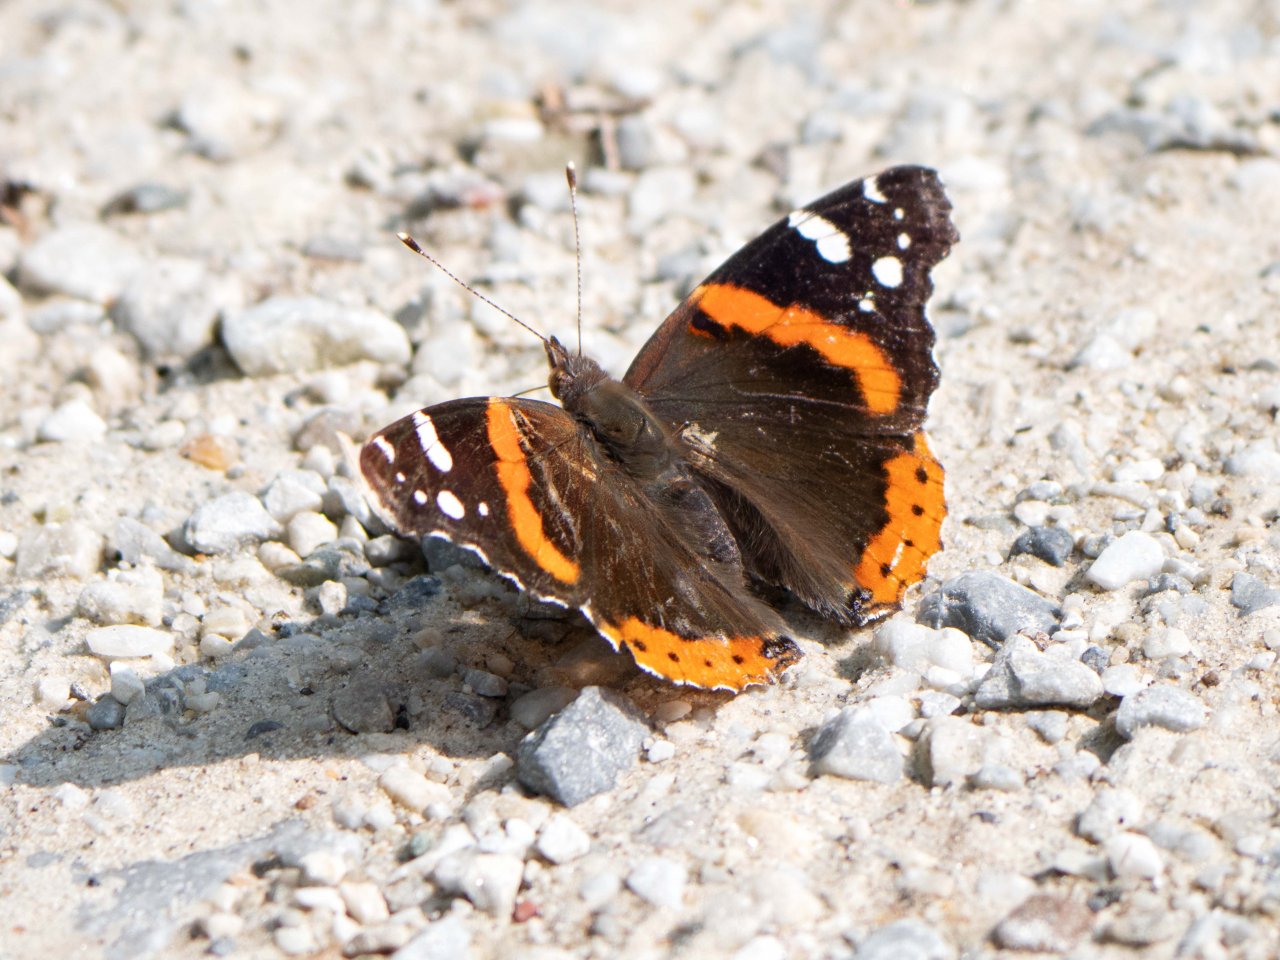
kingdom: Animalia
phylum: Arthropoda
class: Insecta
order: Lepidoptera
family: Nymphalidae
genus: Vanessa
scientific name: Vanessa atalanta
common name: Red Admiral
